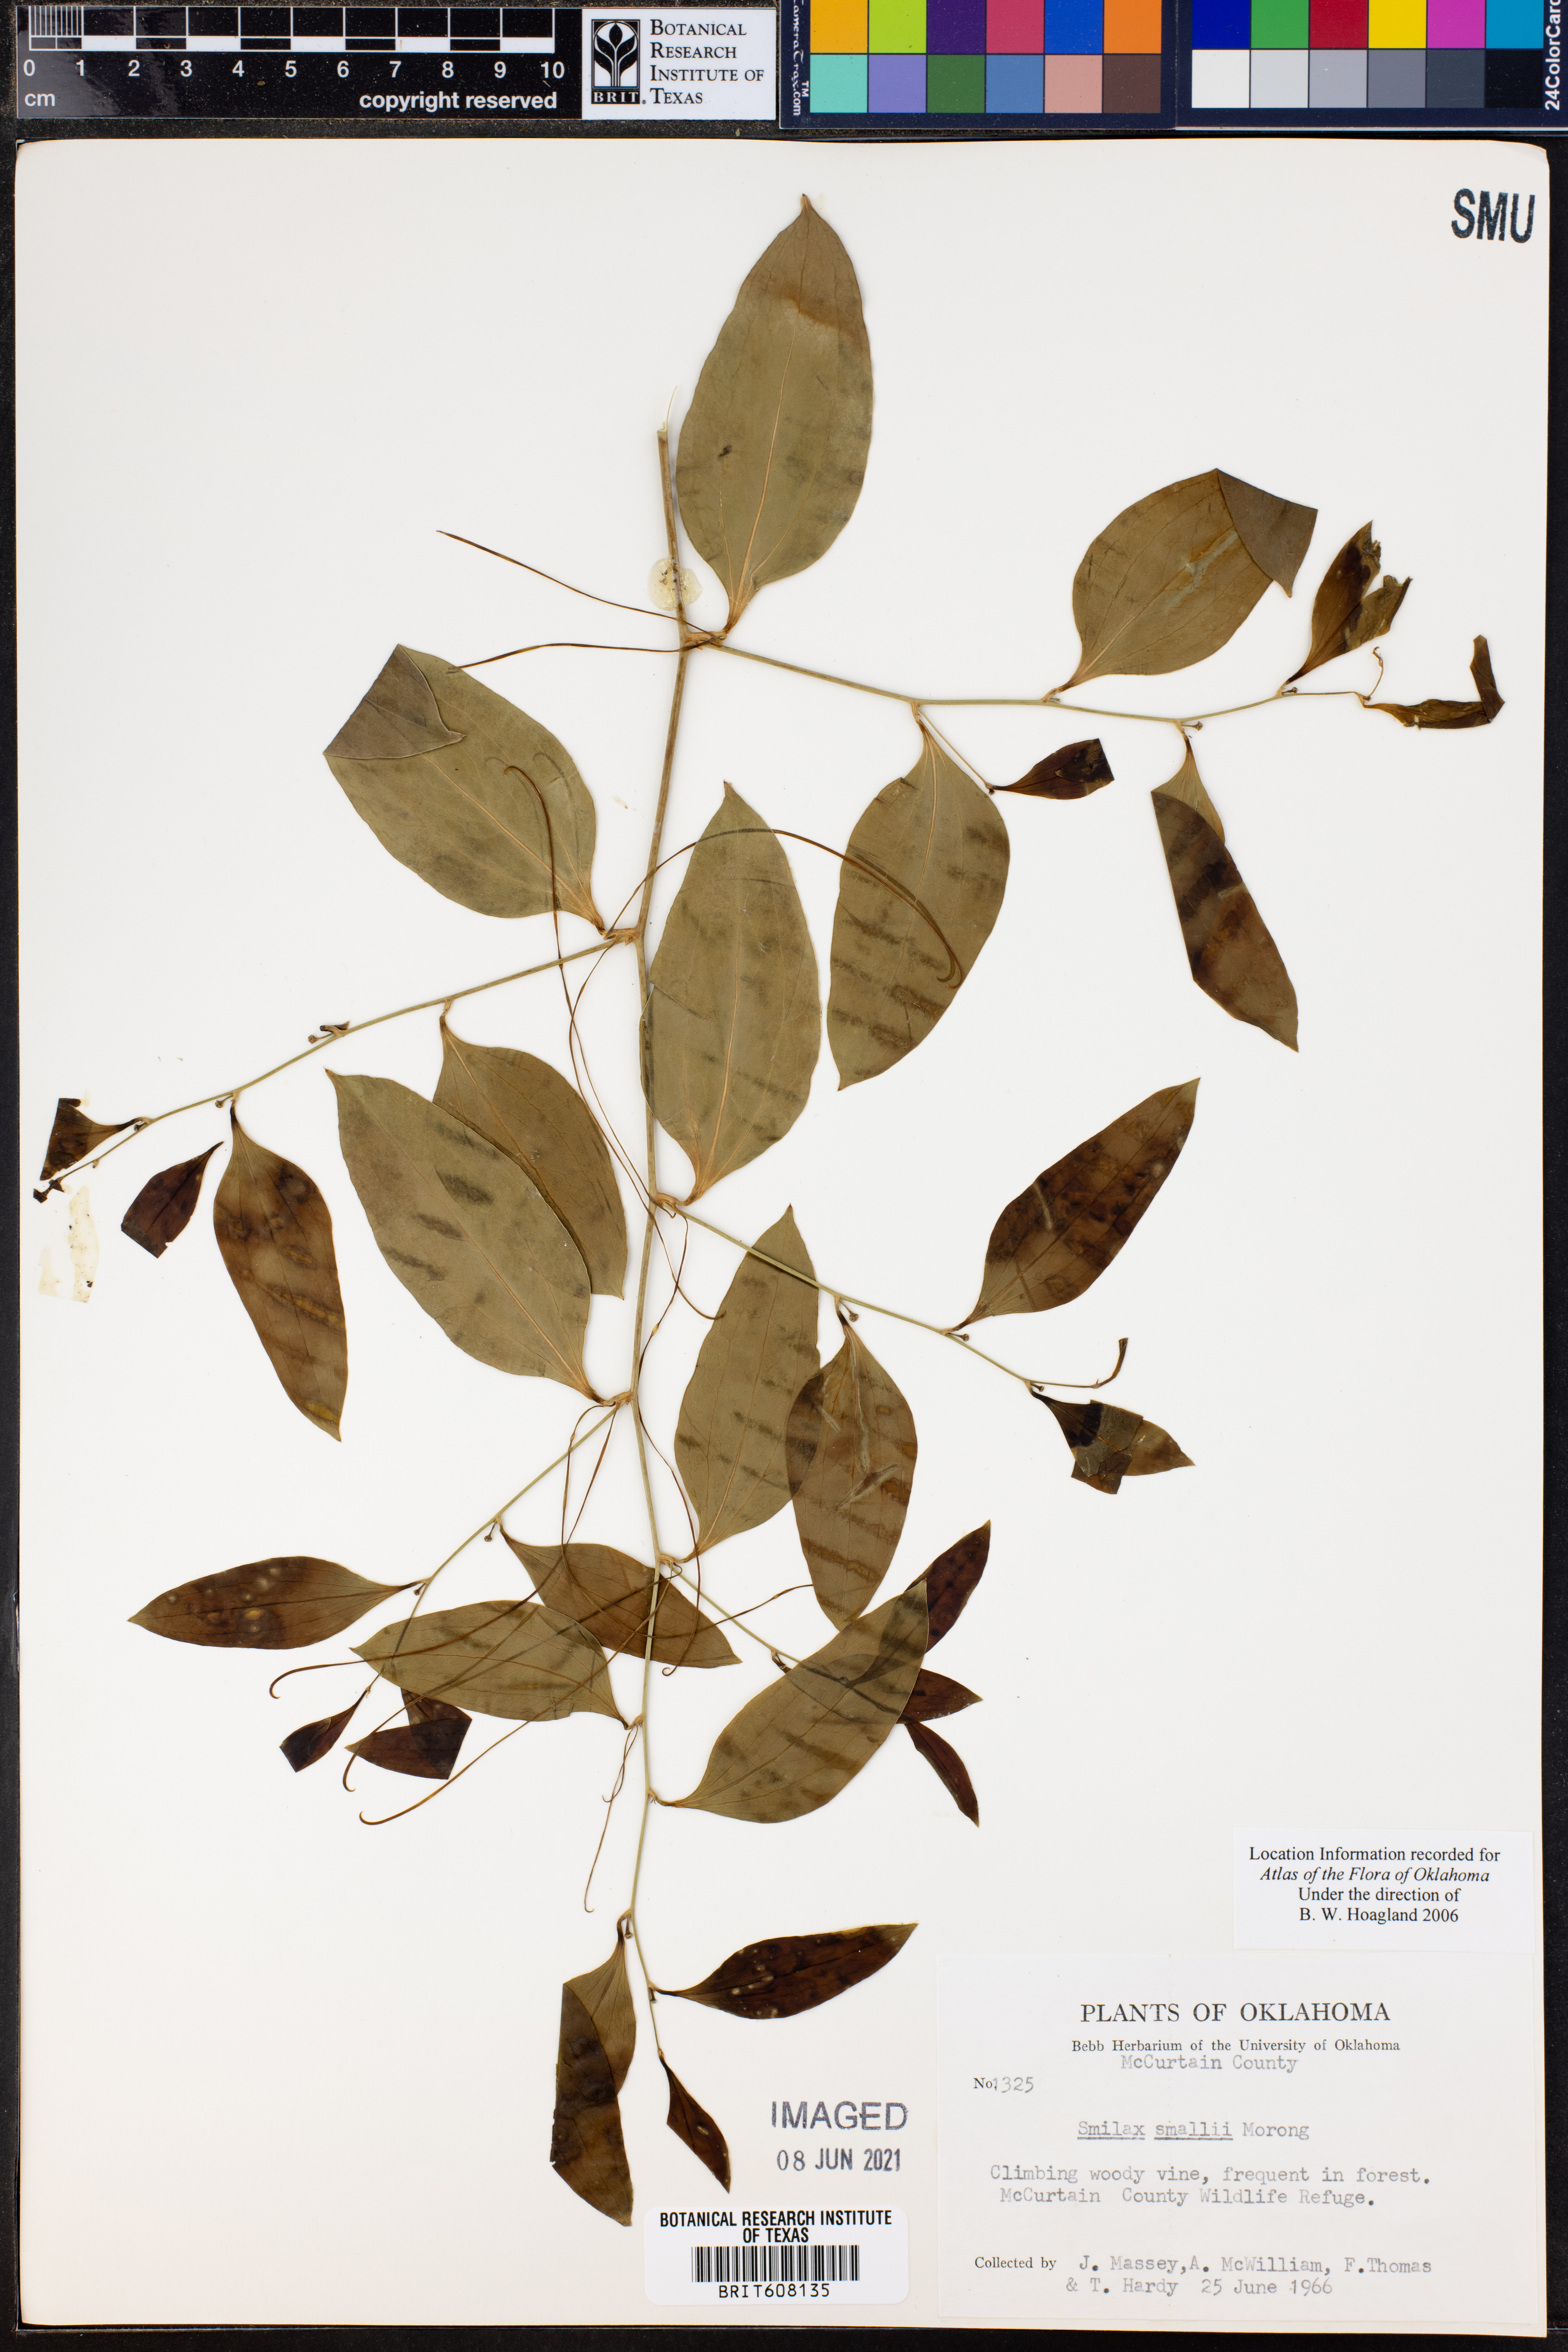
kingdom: Plantae
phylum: Tracheophyta
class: Liliopsida
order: Liliales
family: Smilacaceae
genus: Smilax
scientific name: Smilax maritima
